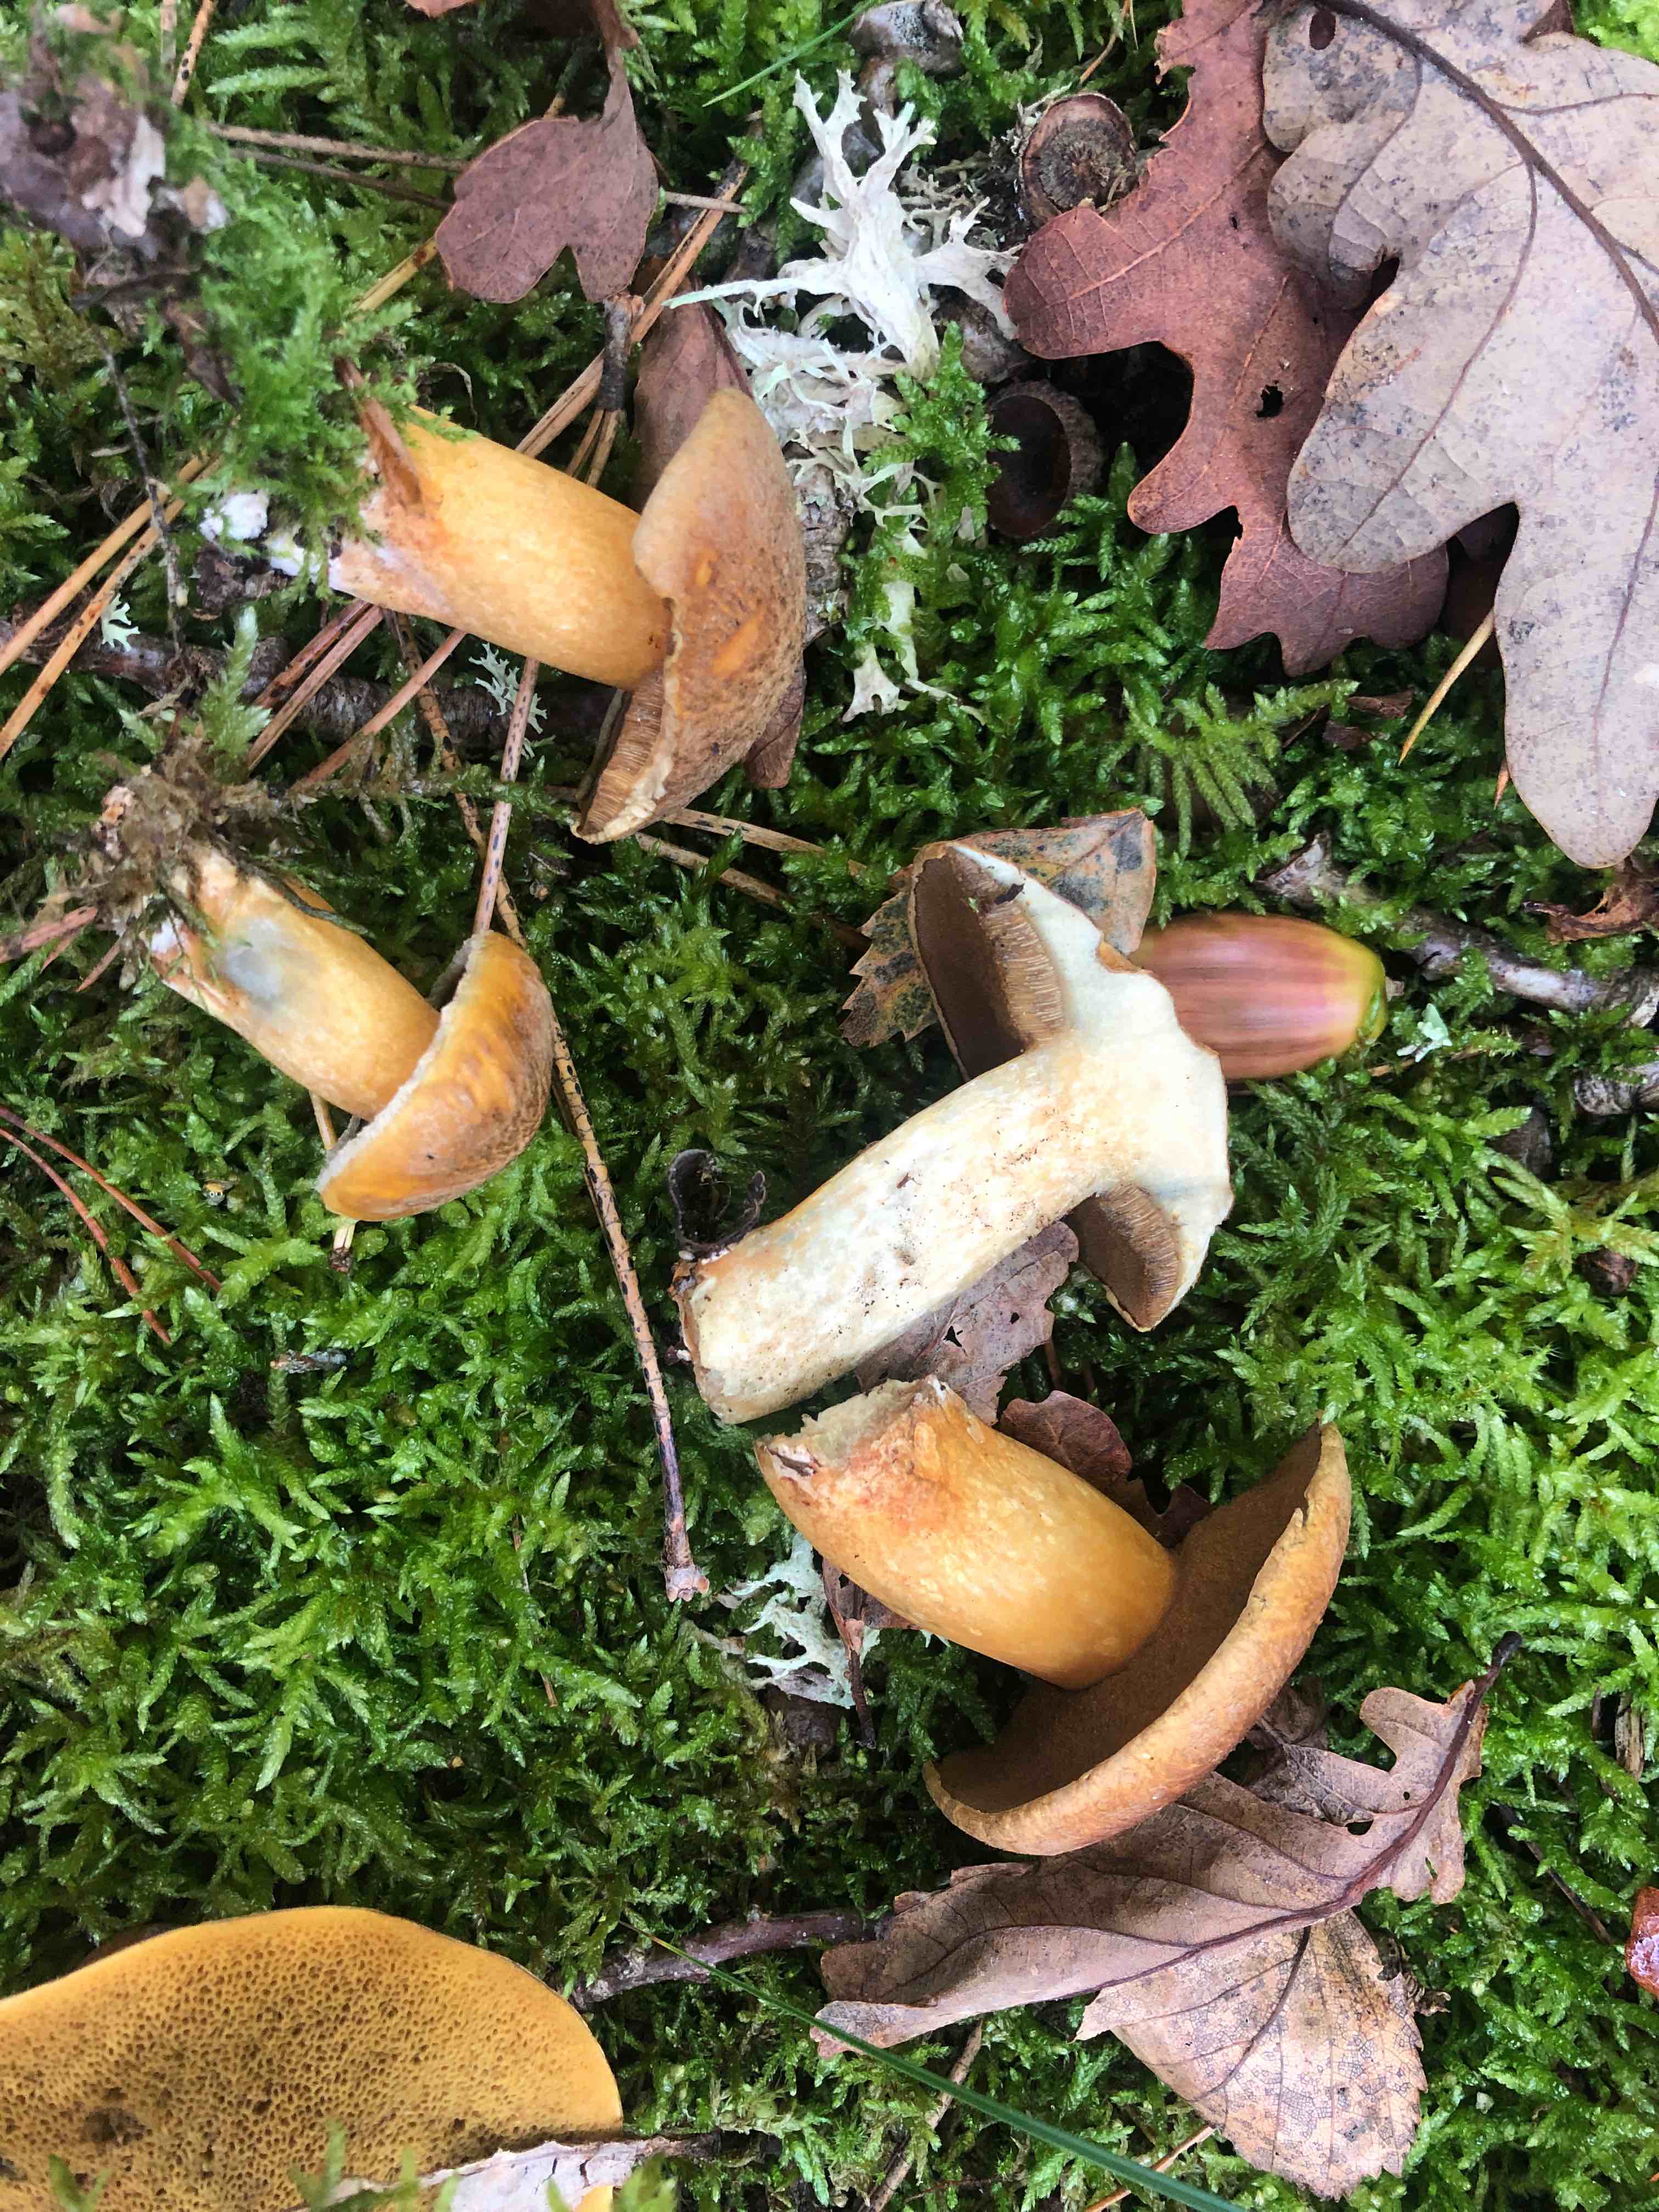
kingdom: Fungi
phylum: Basidiomycota
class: Agaricomycetes
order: Boletales
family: Suillaceae
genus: Suillus
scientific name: Suillus variegatus
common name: broget slimrørhat
